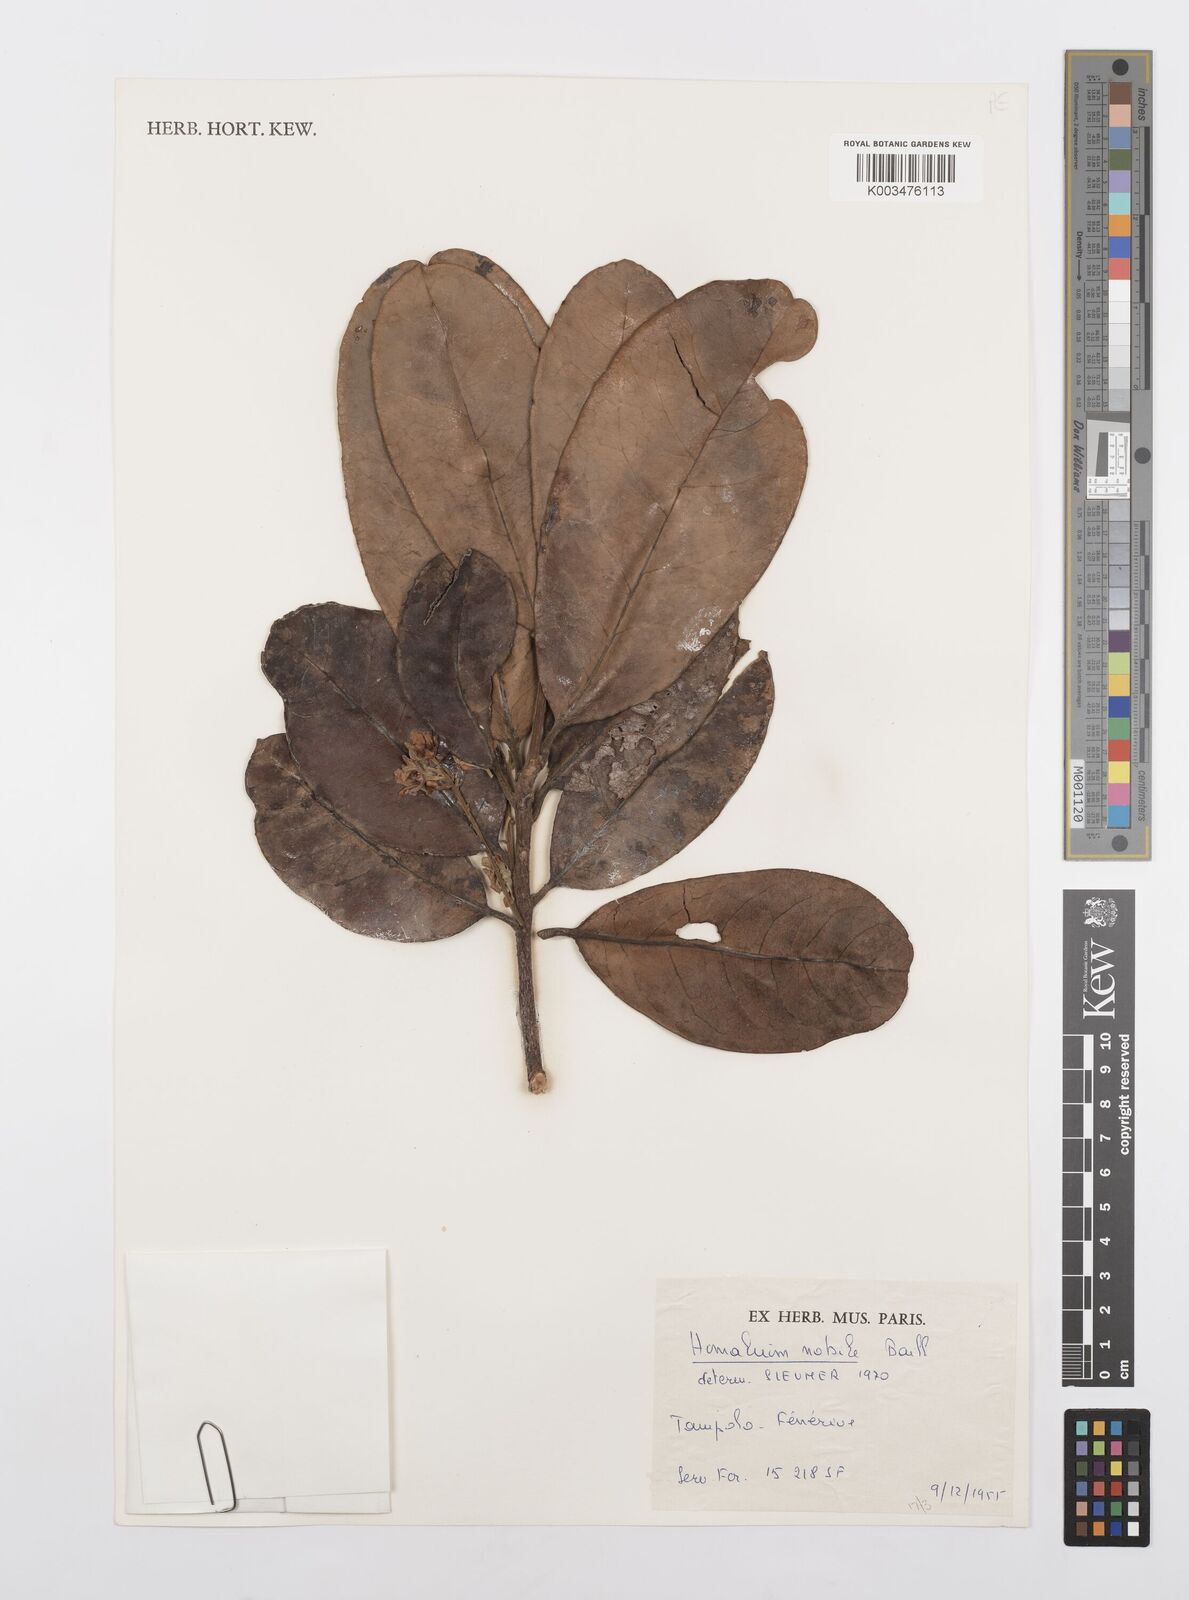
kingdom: Plantae
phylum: Tracheophyta
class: Magnoliopsida
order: Malpighiales
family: Salicaceae
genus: Homalium
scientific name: Homalium nobile
